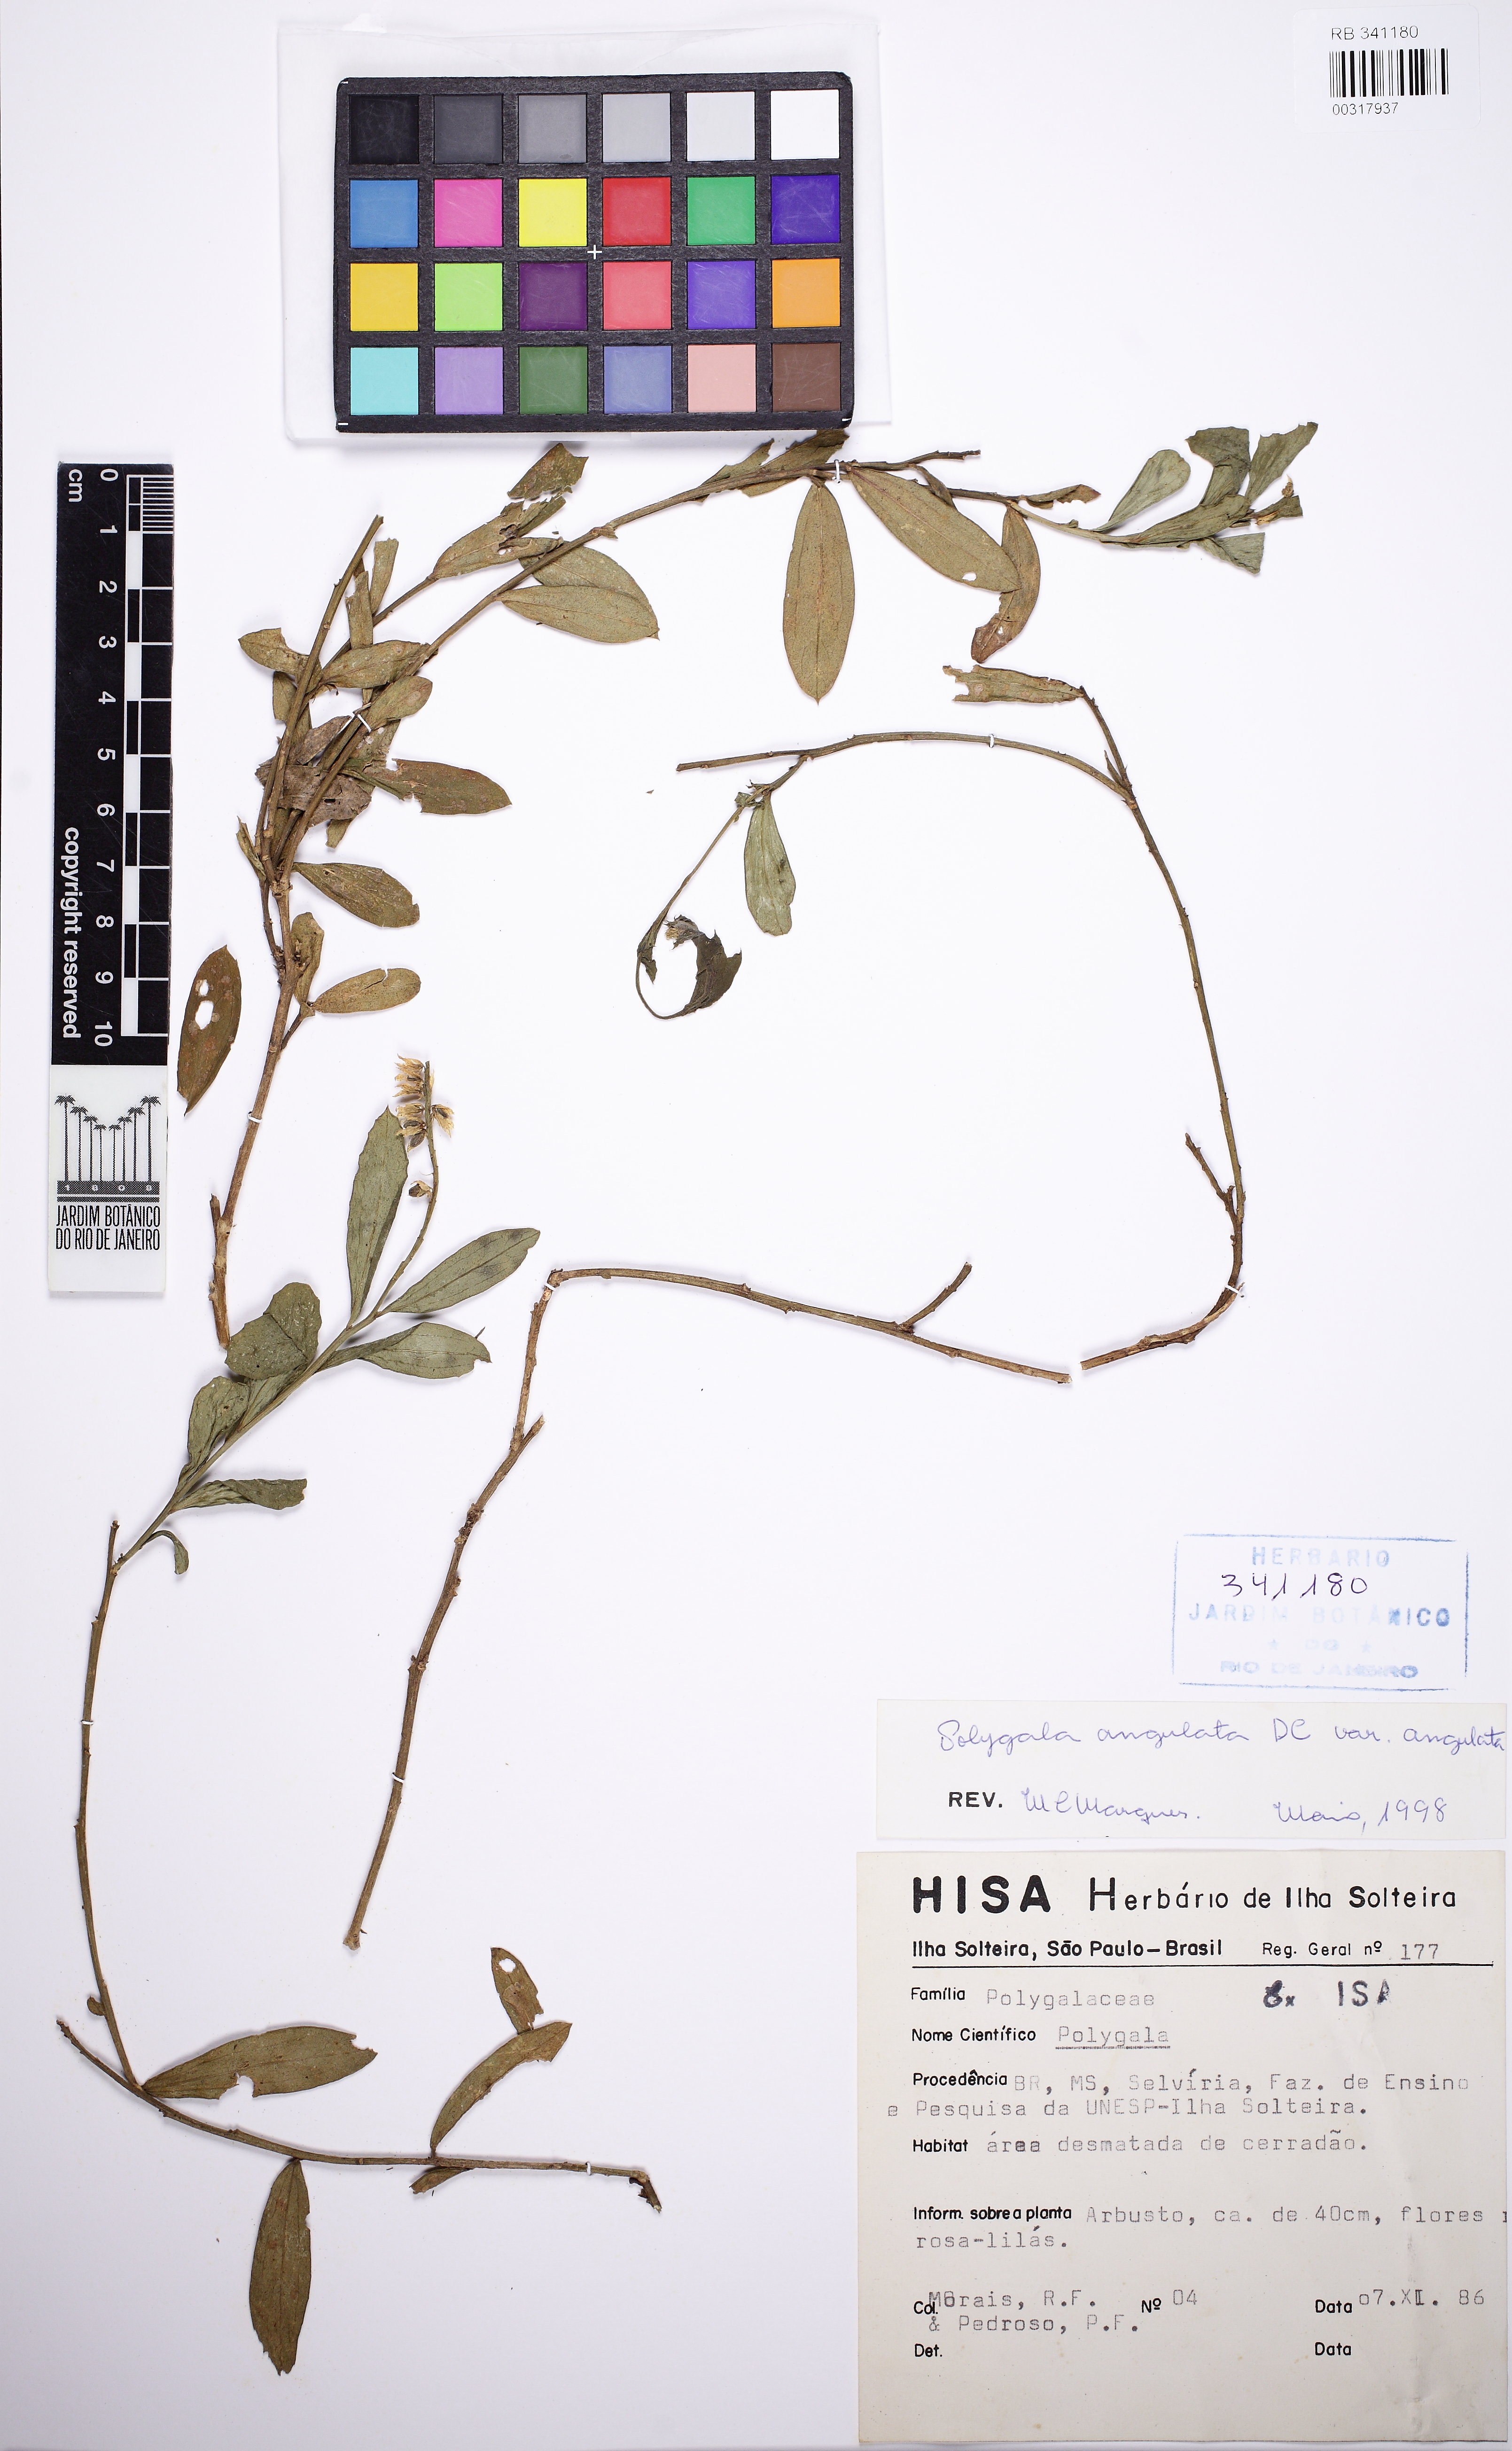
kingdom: Plantae
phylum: Tracheophyta
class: Magnoliopsida
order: Fabales
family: Polygalaceae
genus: Polygala
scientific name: Polygala poaya
